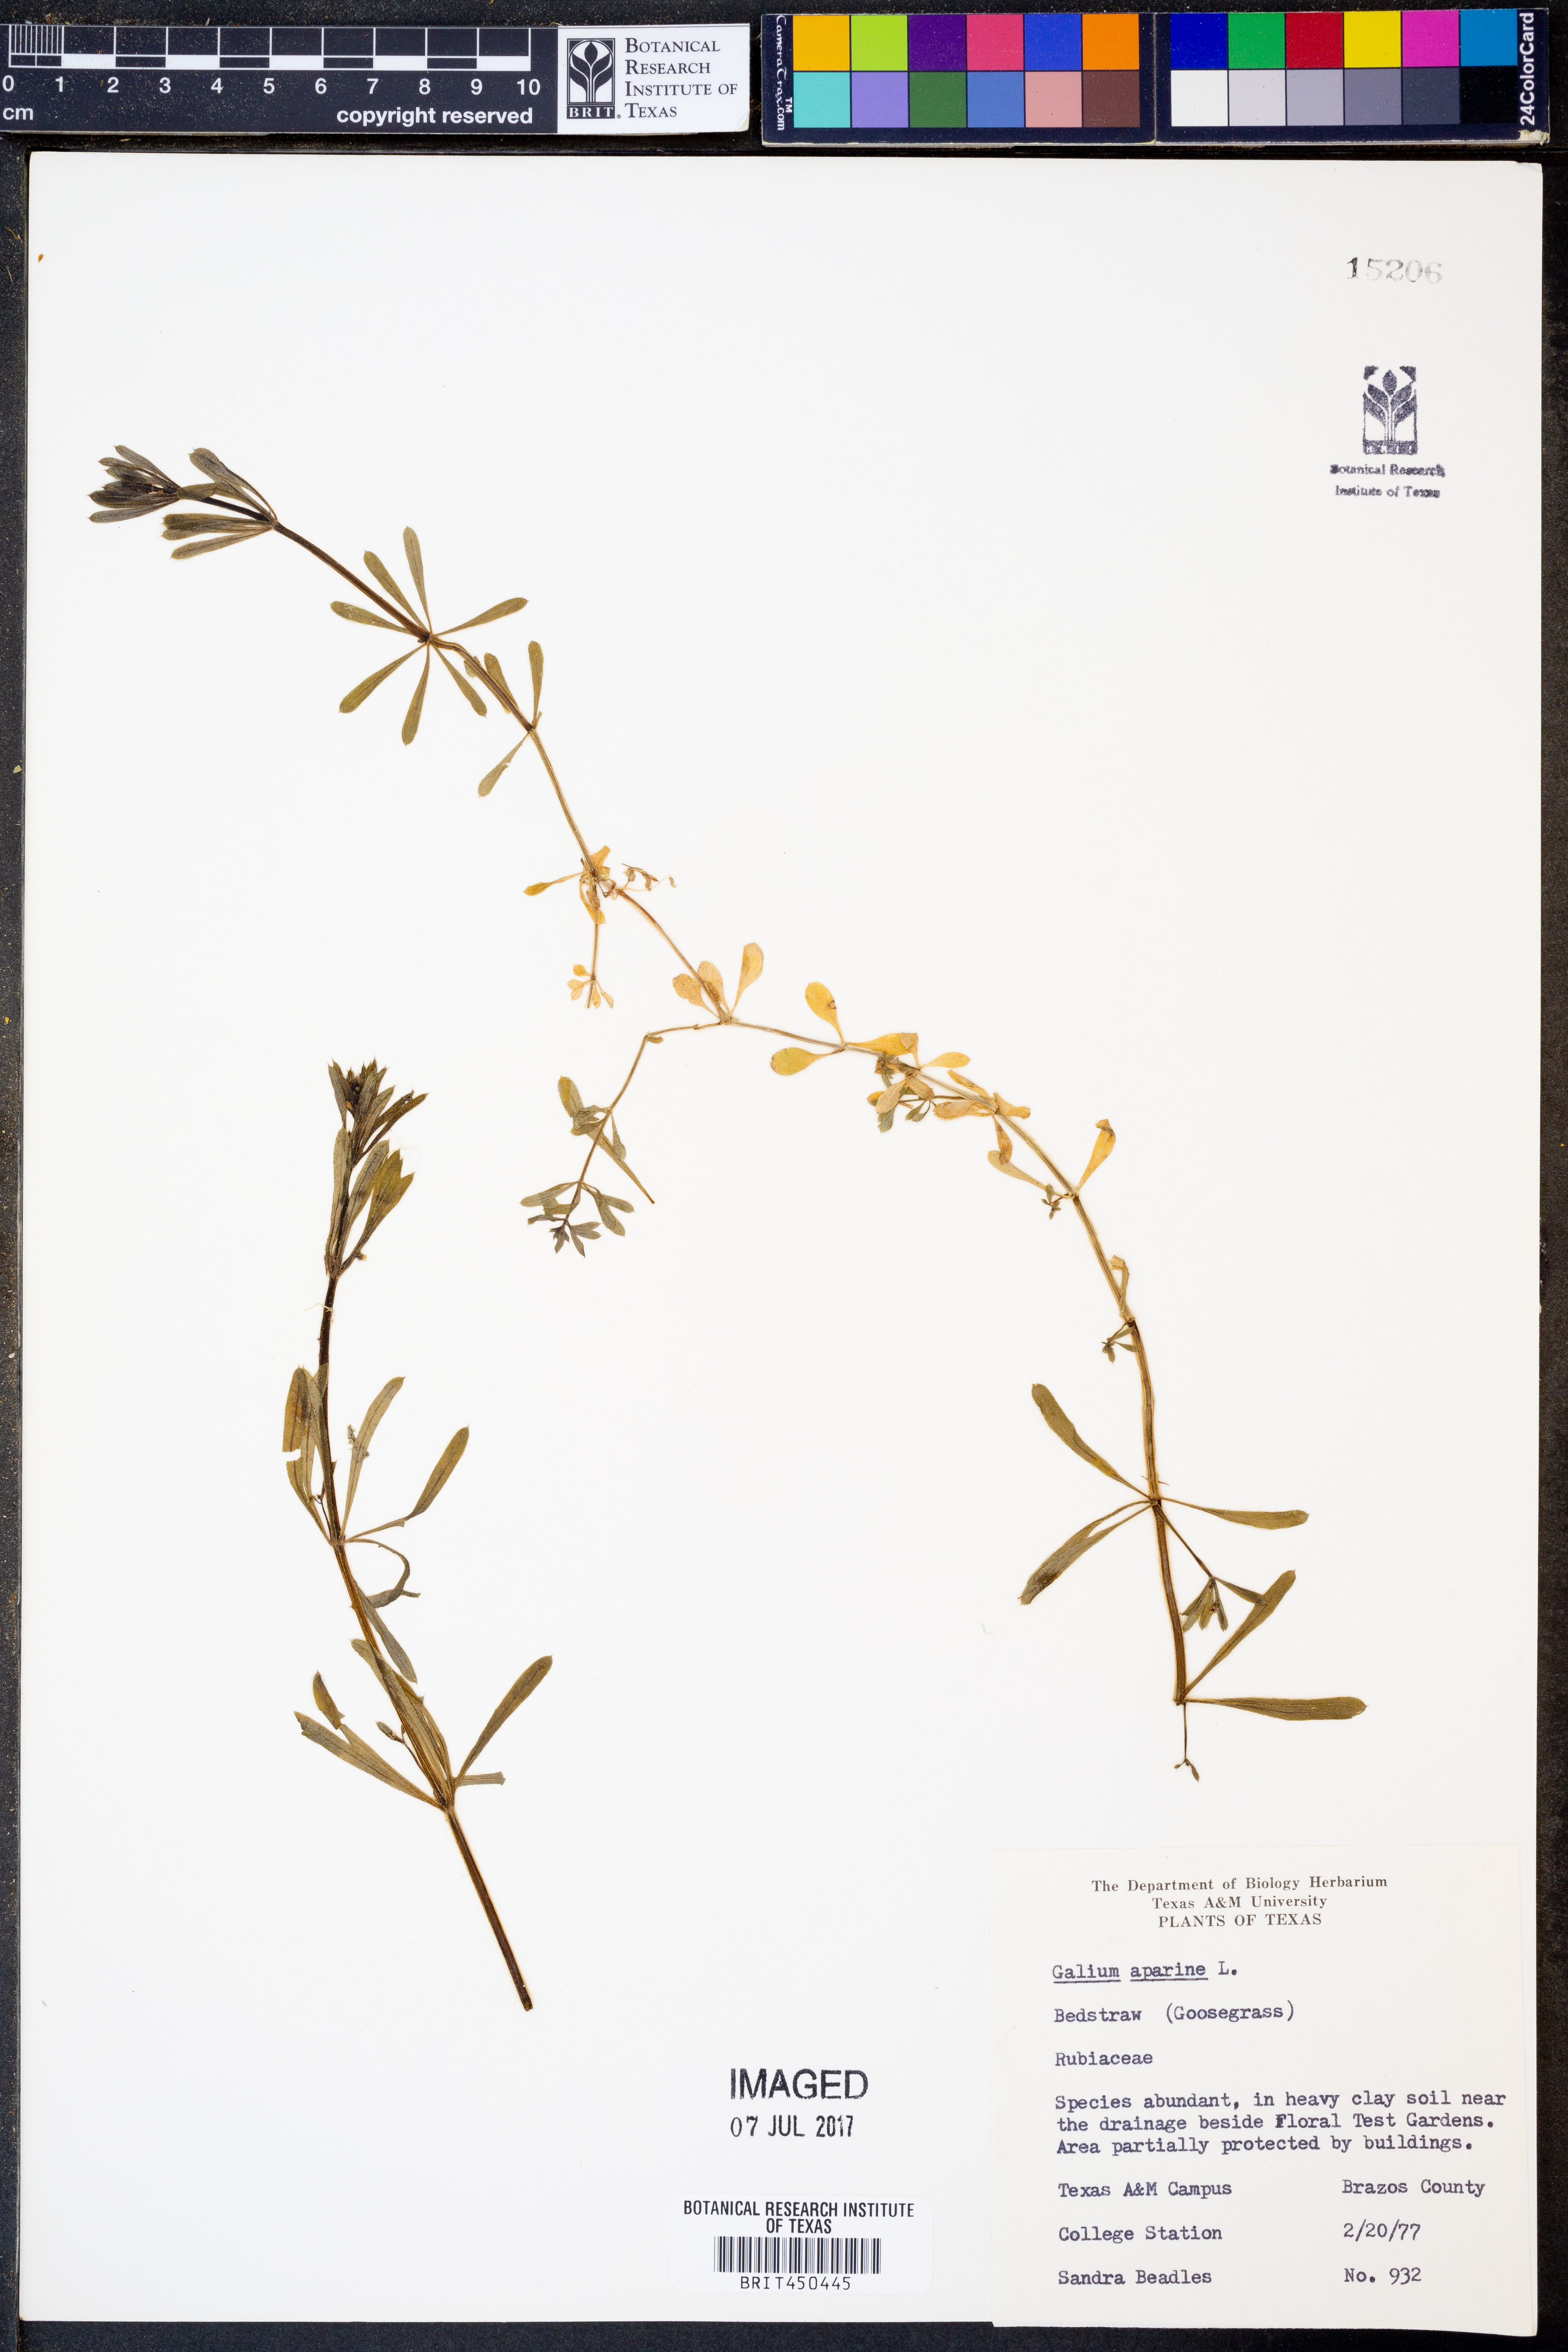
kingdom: Plantae
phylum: Tracheophyta
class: Magnoliopsida
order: Gentianales
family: Rubiaceae
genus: Galium
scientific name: Galium aparine
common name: Cleavers
